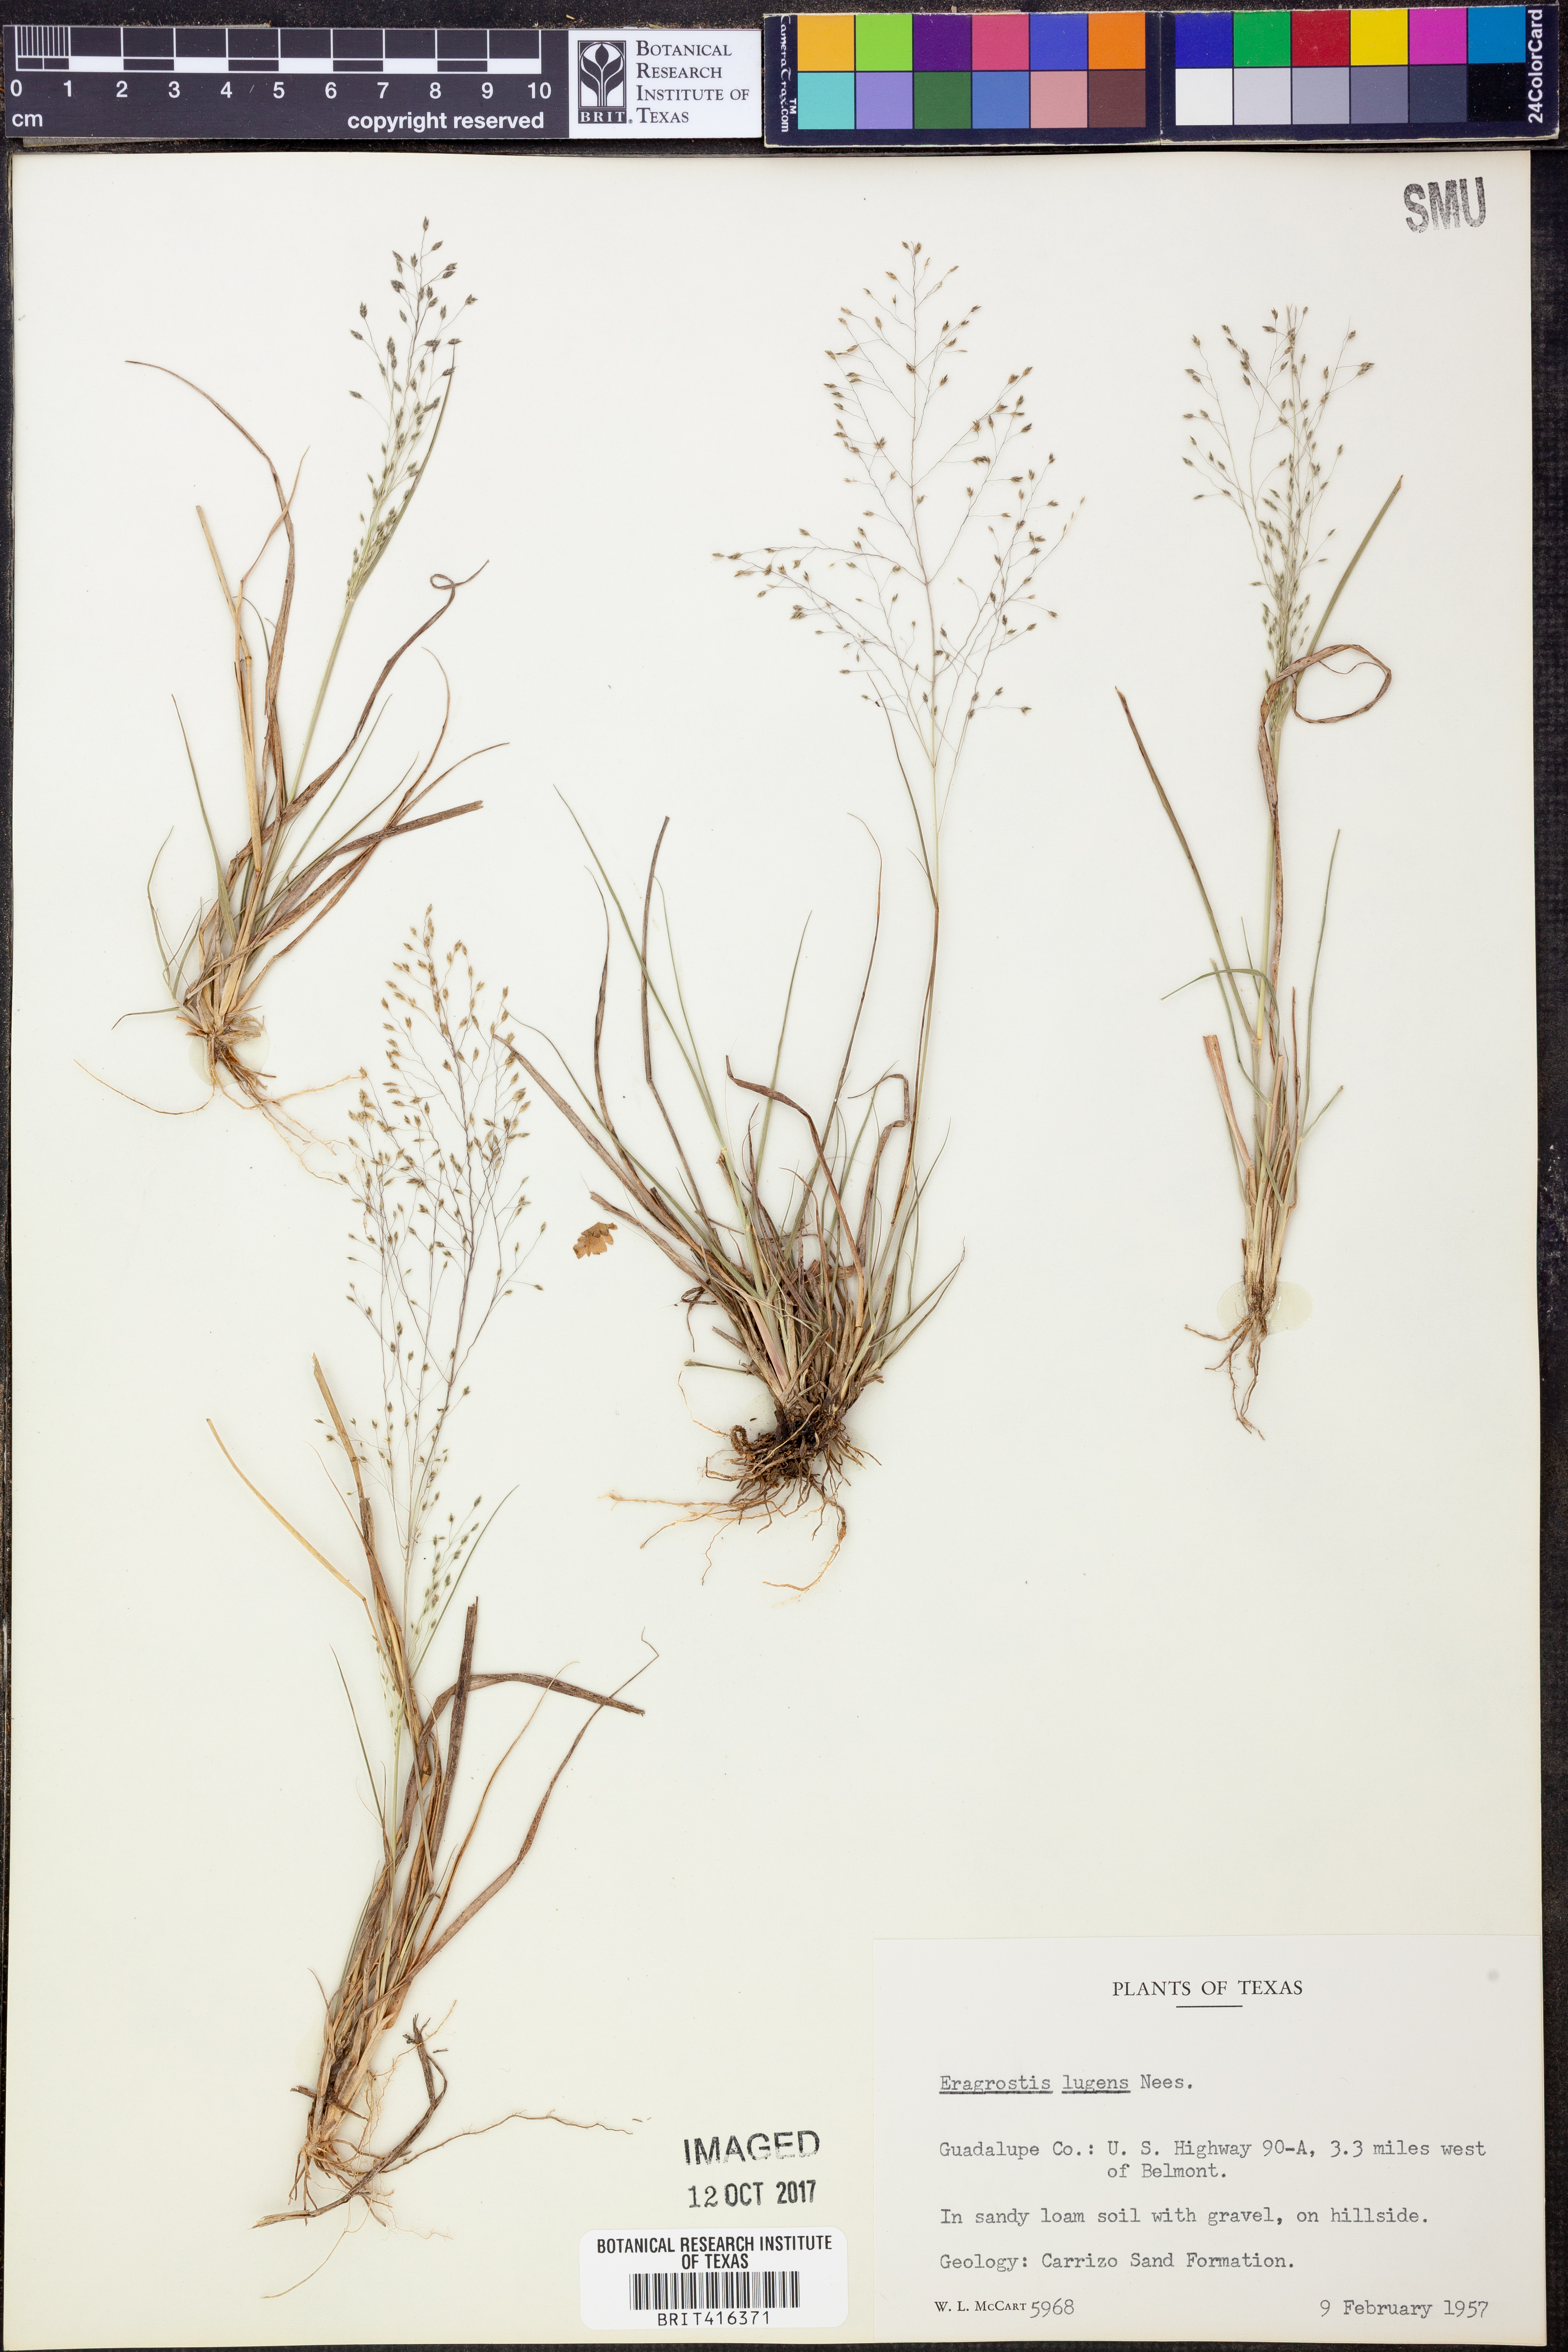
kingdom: Plantae
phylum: Tracheophyta
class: Liliopsida
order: Poales
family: Poaceae
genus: Eragrostis
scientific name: Eragrostis capillaris
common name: Hair-like lovegrass
